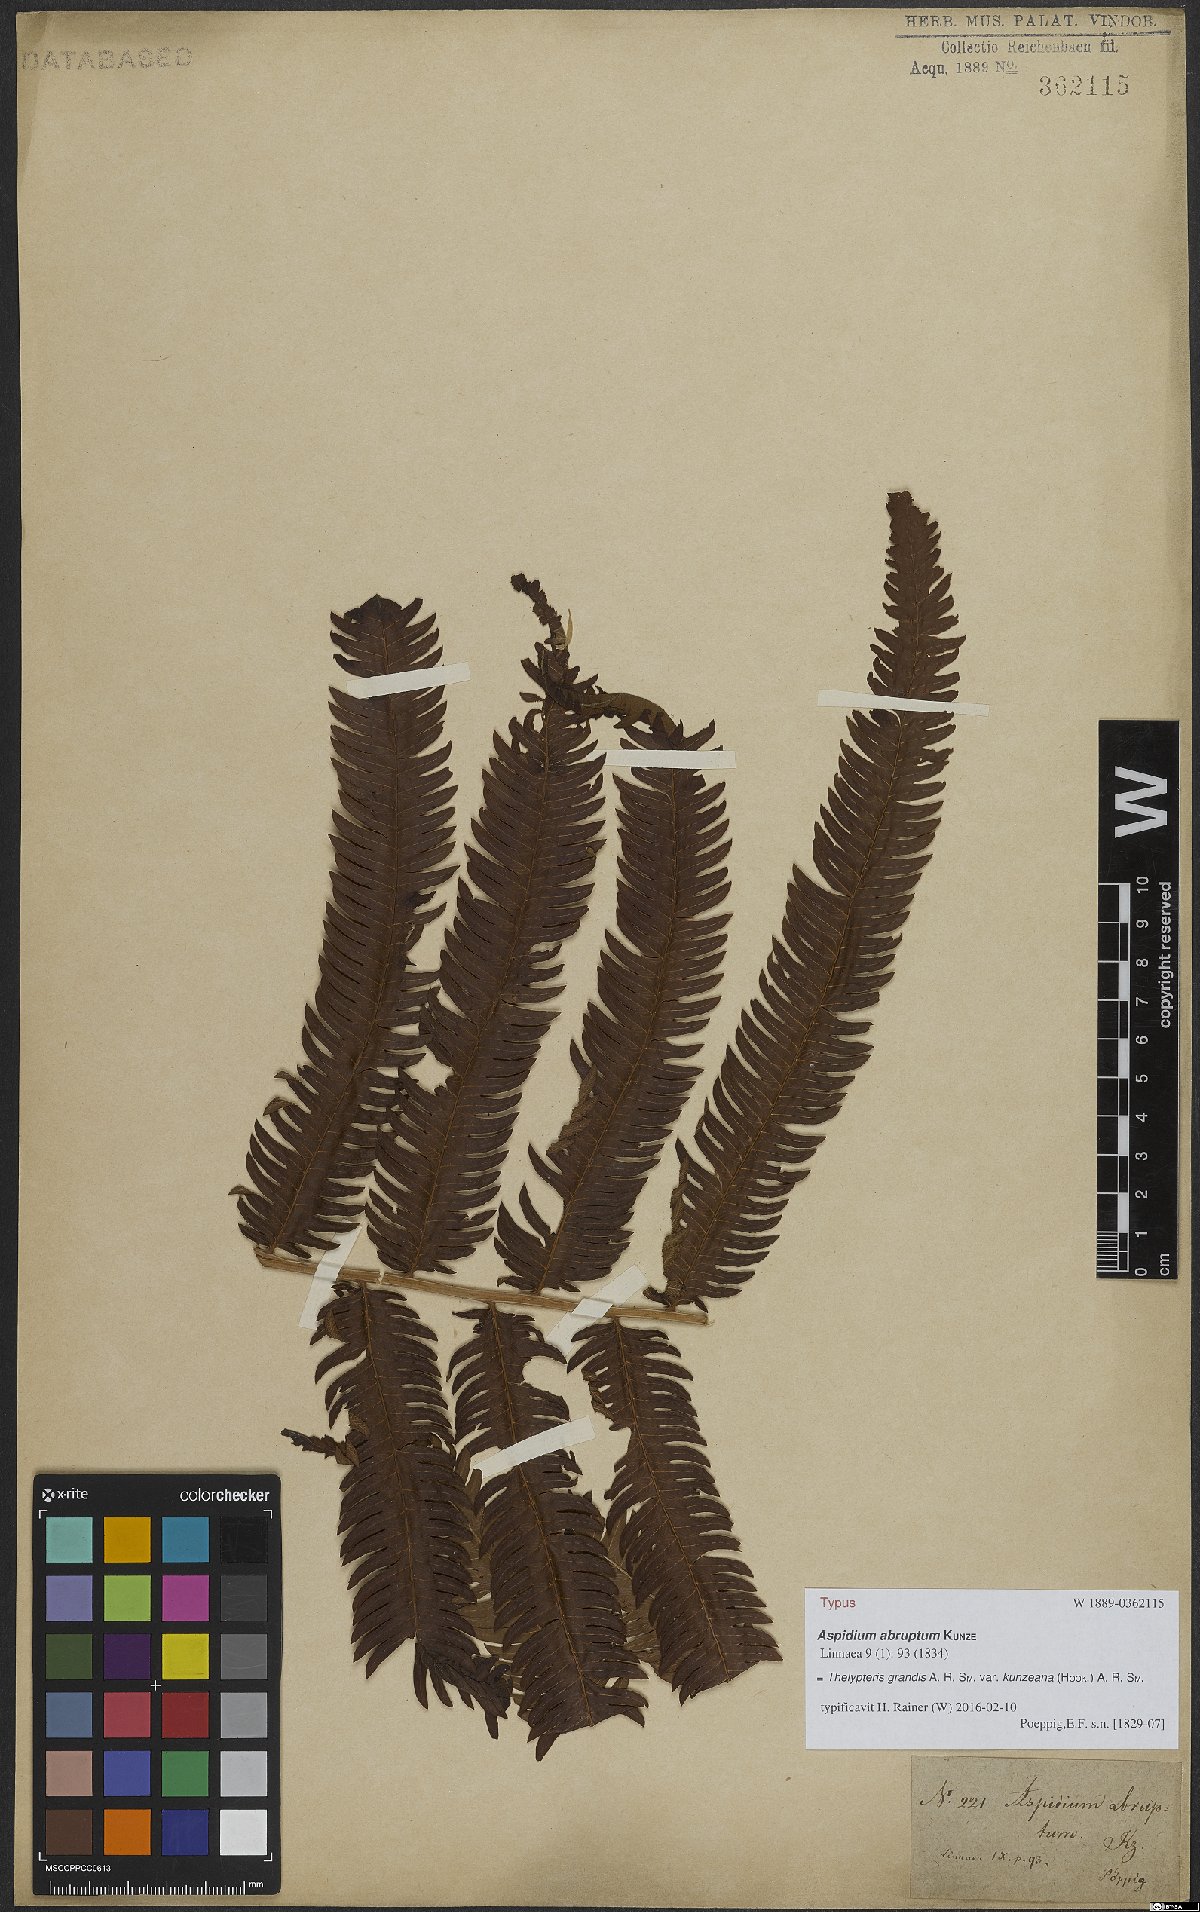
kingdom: Plantae
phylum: Tracheophyta
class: Polypodiopsida
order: Polypodiales
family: Thelypteridaceae
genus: Pelazoneuron
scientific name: Pelazoneuron abruptum
